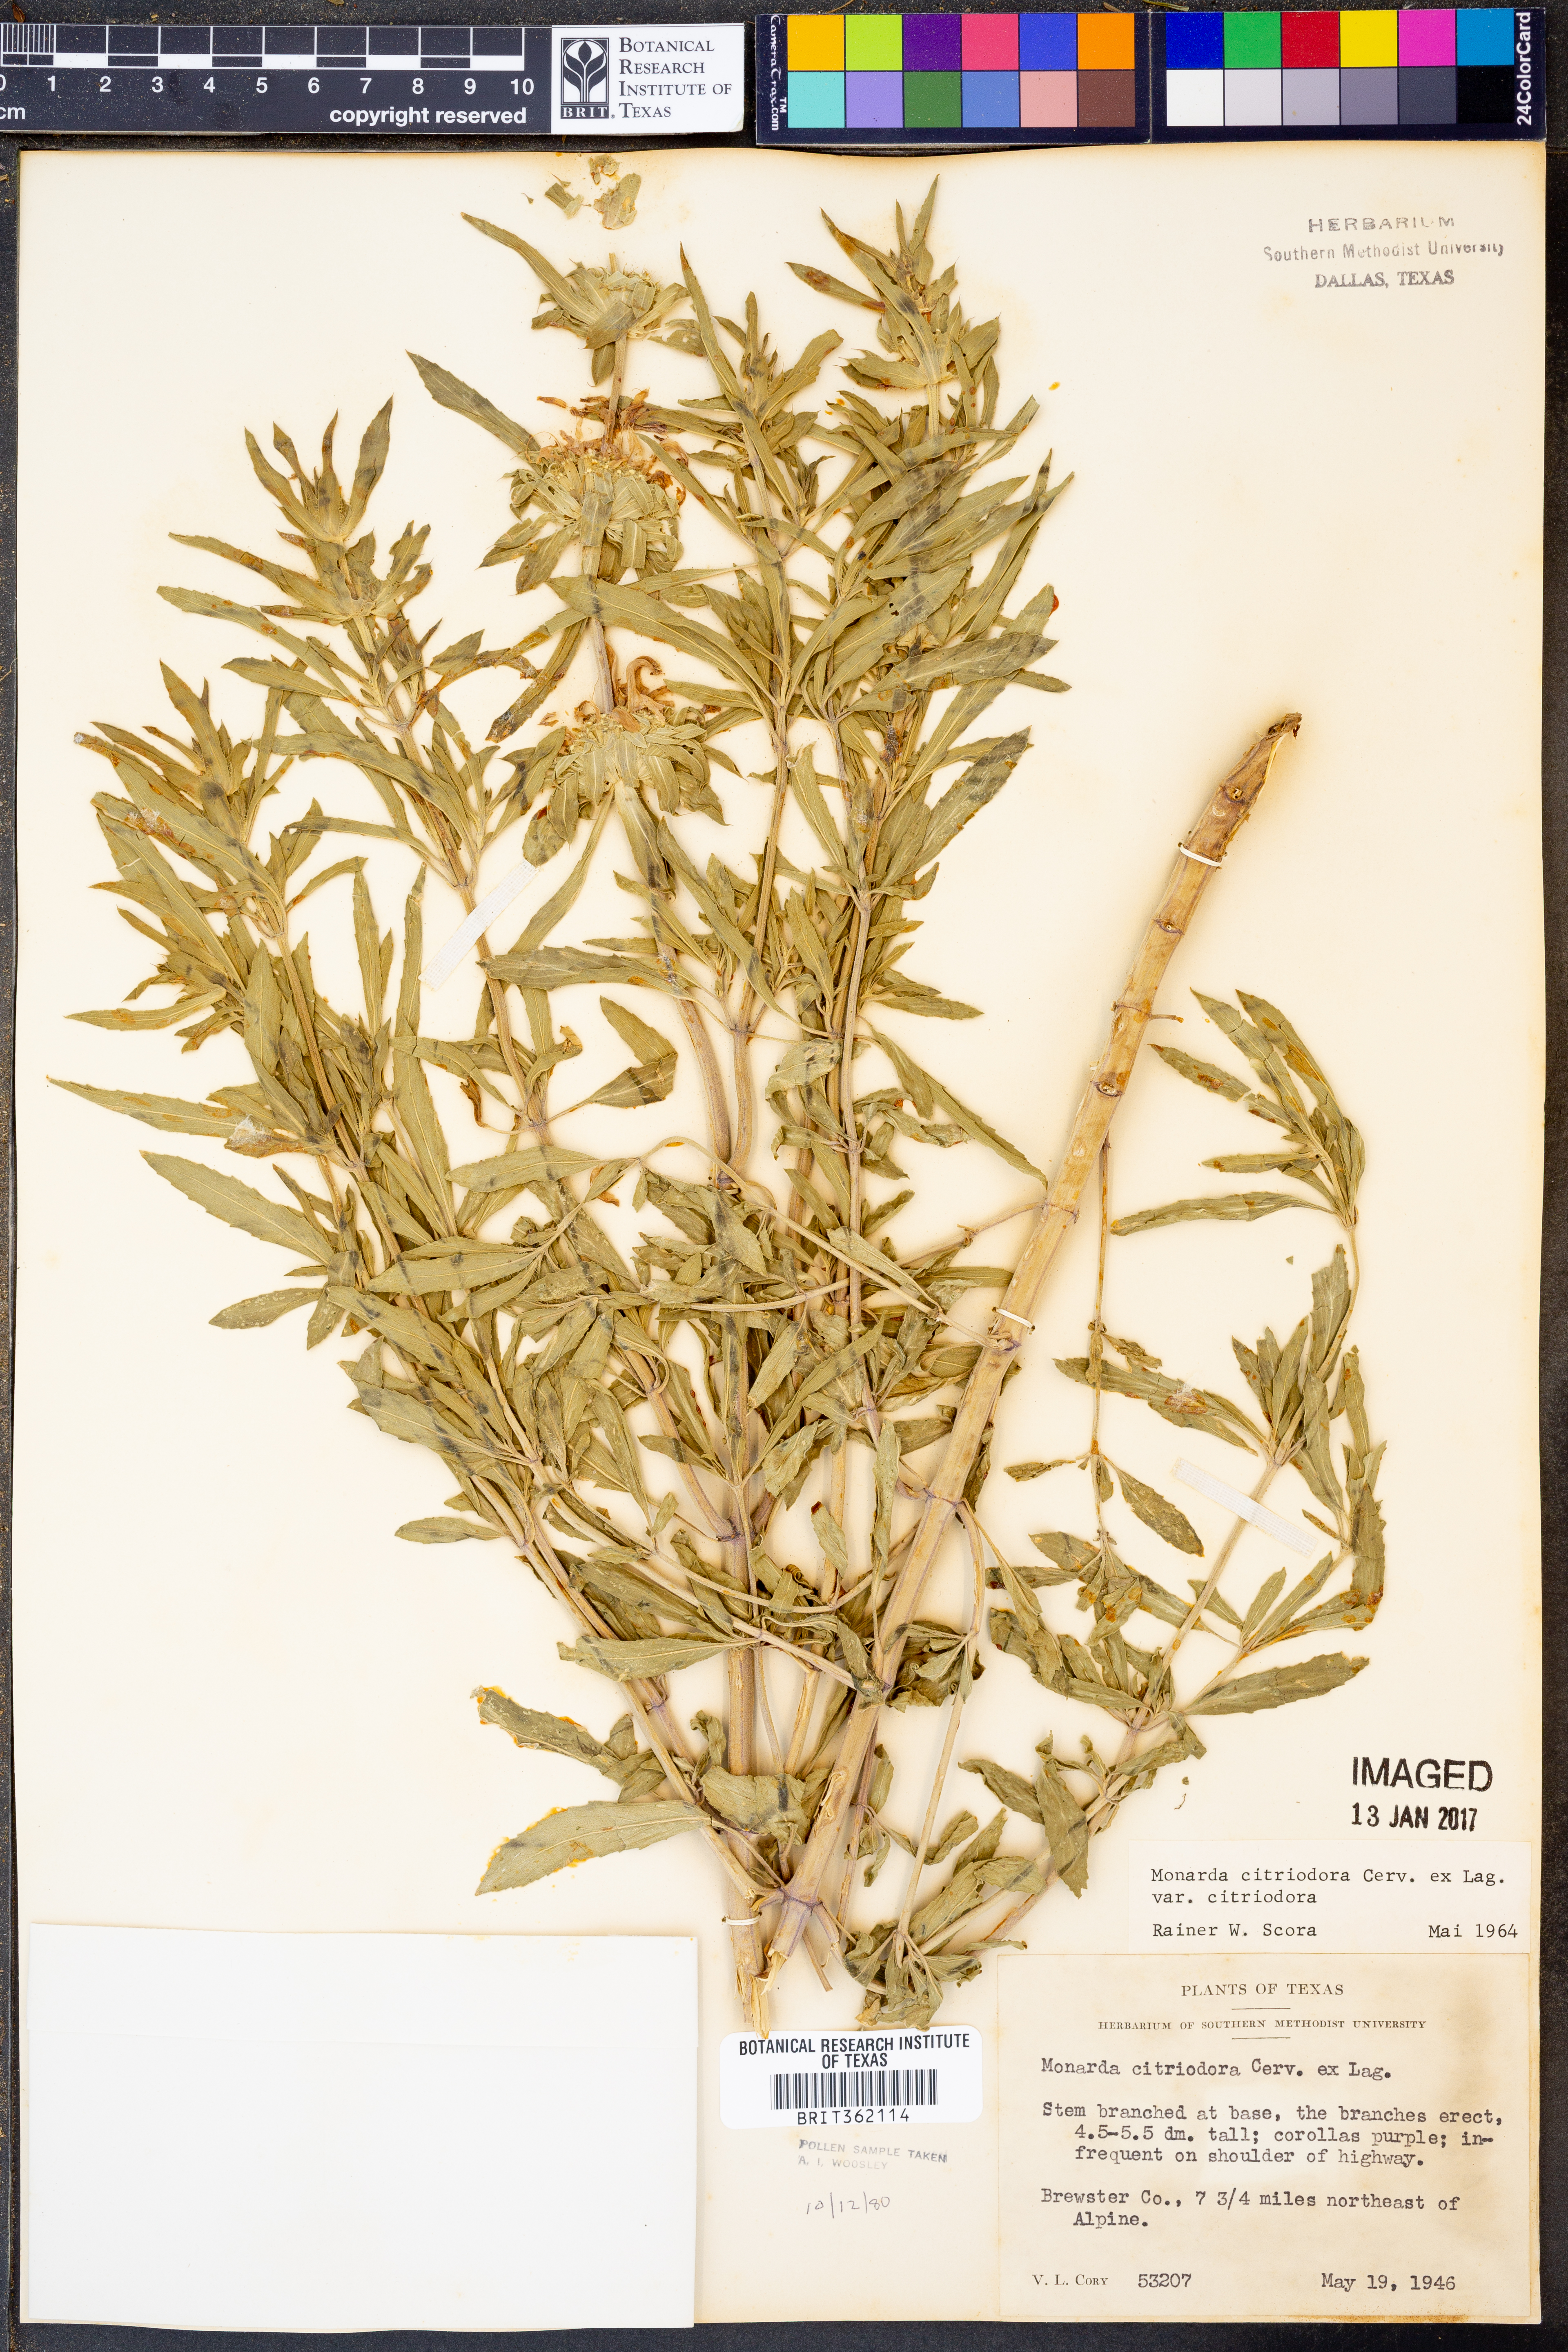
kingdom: Plantae
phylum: Tracheophyta
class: Magnoliopsida
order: Lamiales
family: Lamiaceae
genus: Monarda
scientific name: Monarda citriodora
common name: Lemon beebalm
